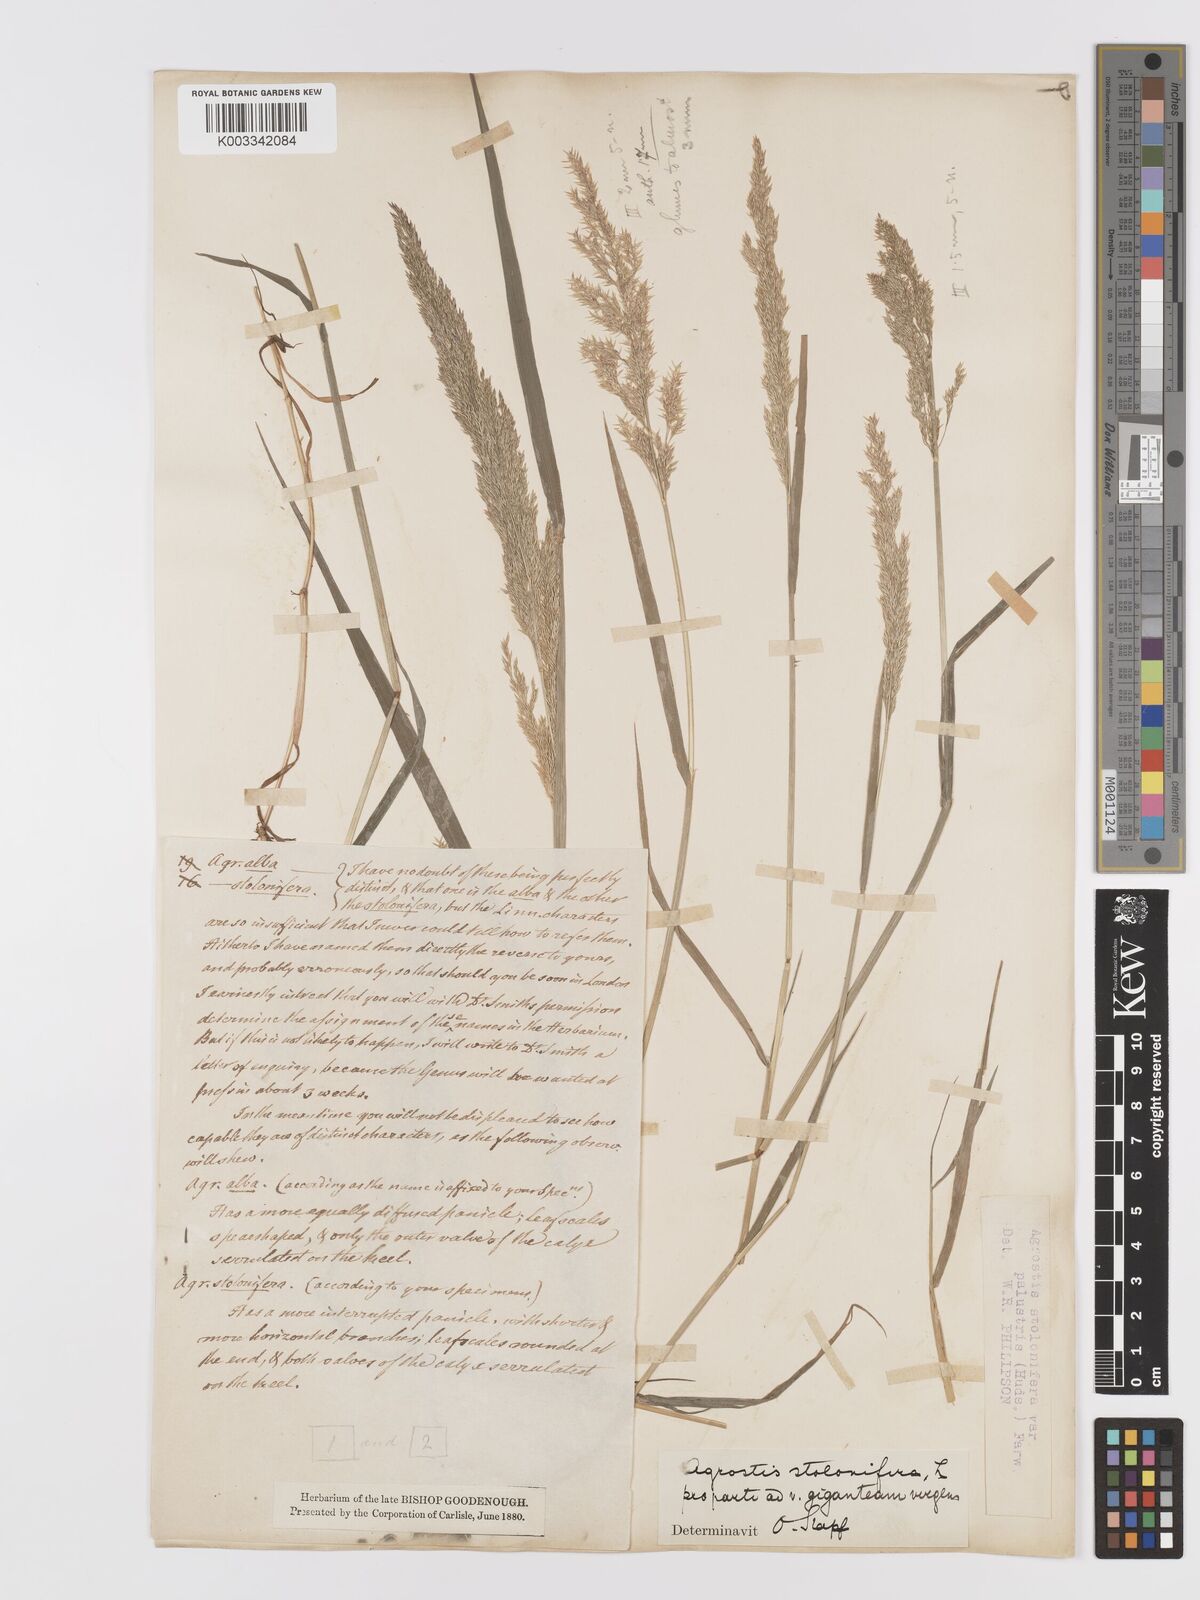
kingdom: Plantae
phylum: Tracheophyta
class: Liliopsida
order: Poales
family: Poaceae
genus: Agrostis
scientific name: Agrostis stolonifera
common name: Creeping bentgrass
